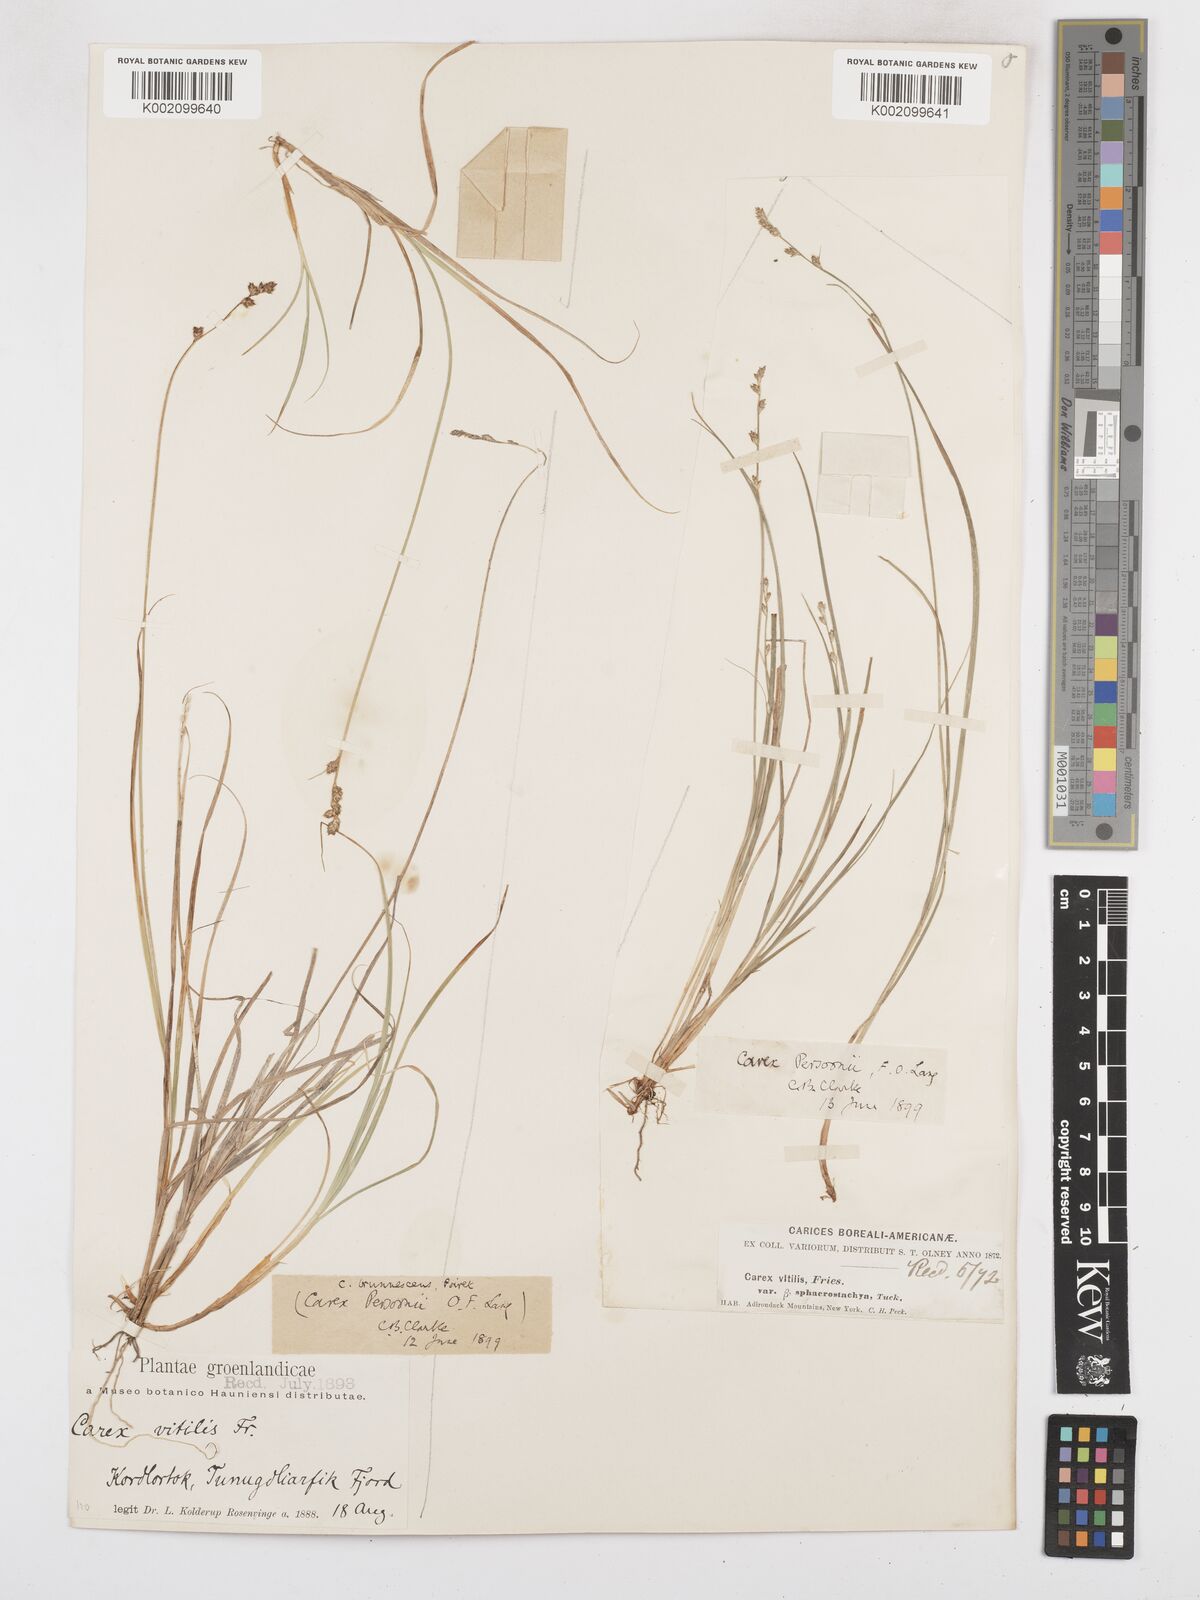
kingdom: Plantae
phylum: Tracheophyta
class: Liliopsida
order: Poales
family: Cyperaceae
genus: Carex
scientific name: Carex brunnescens
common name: Brown sedge
